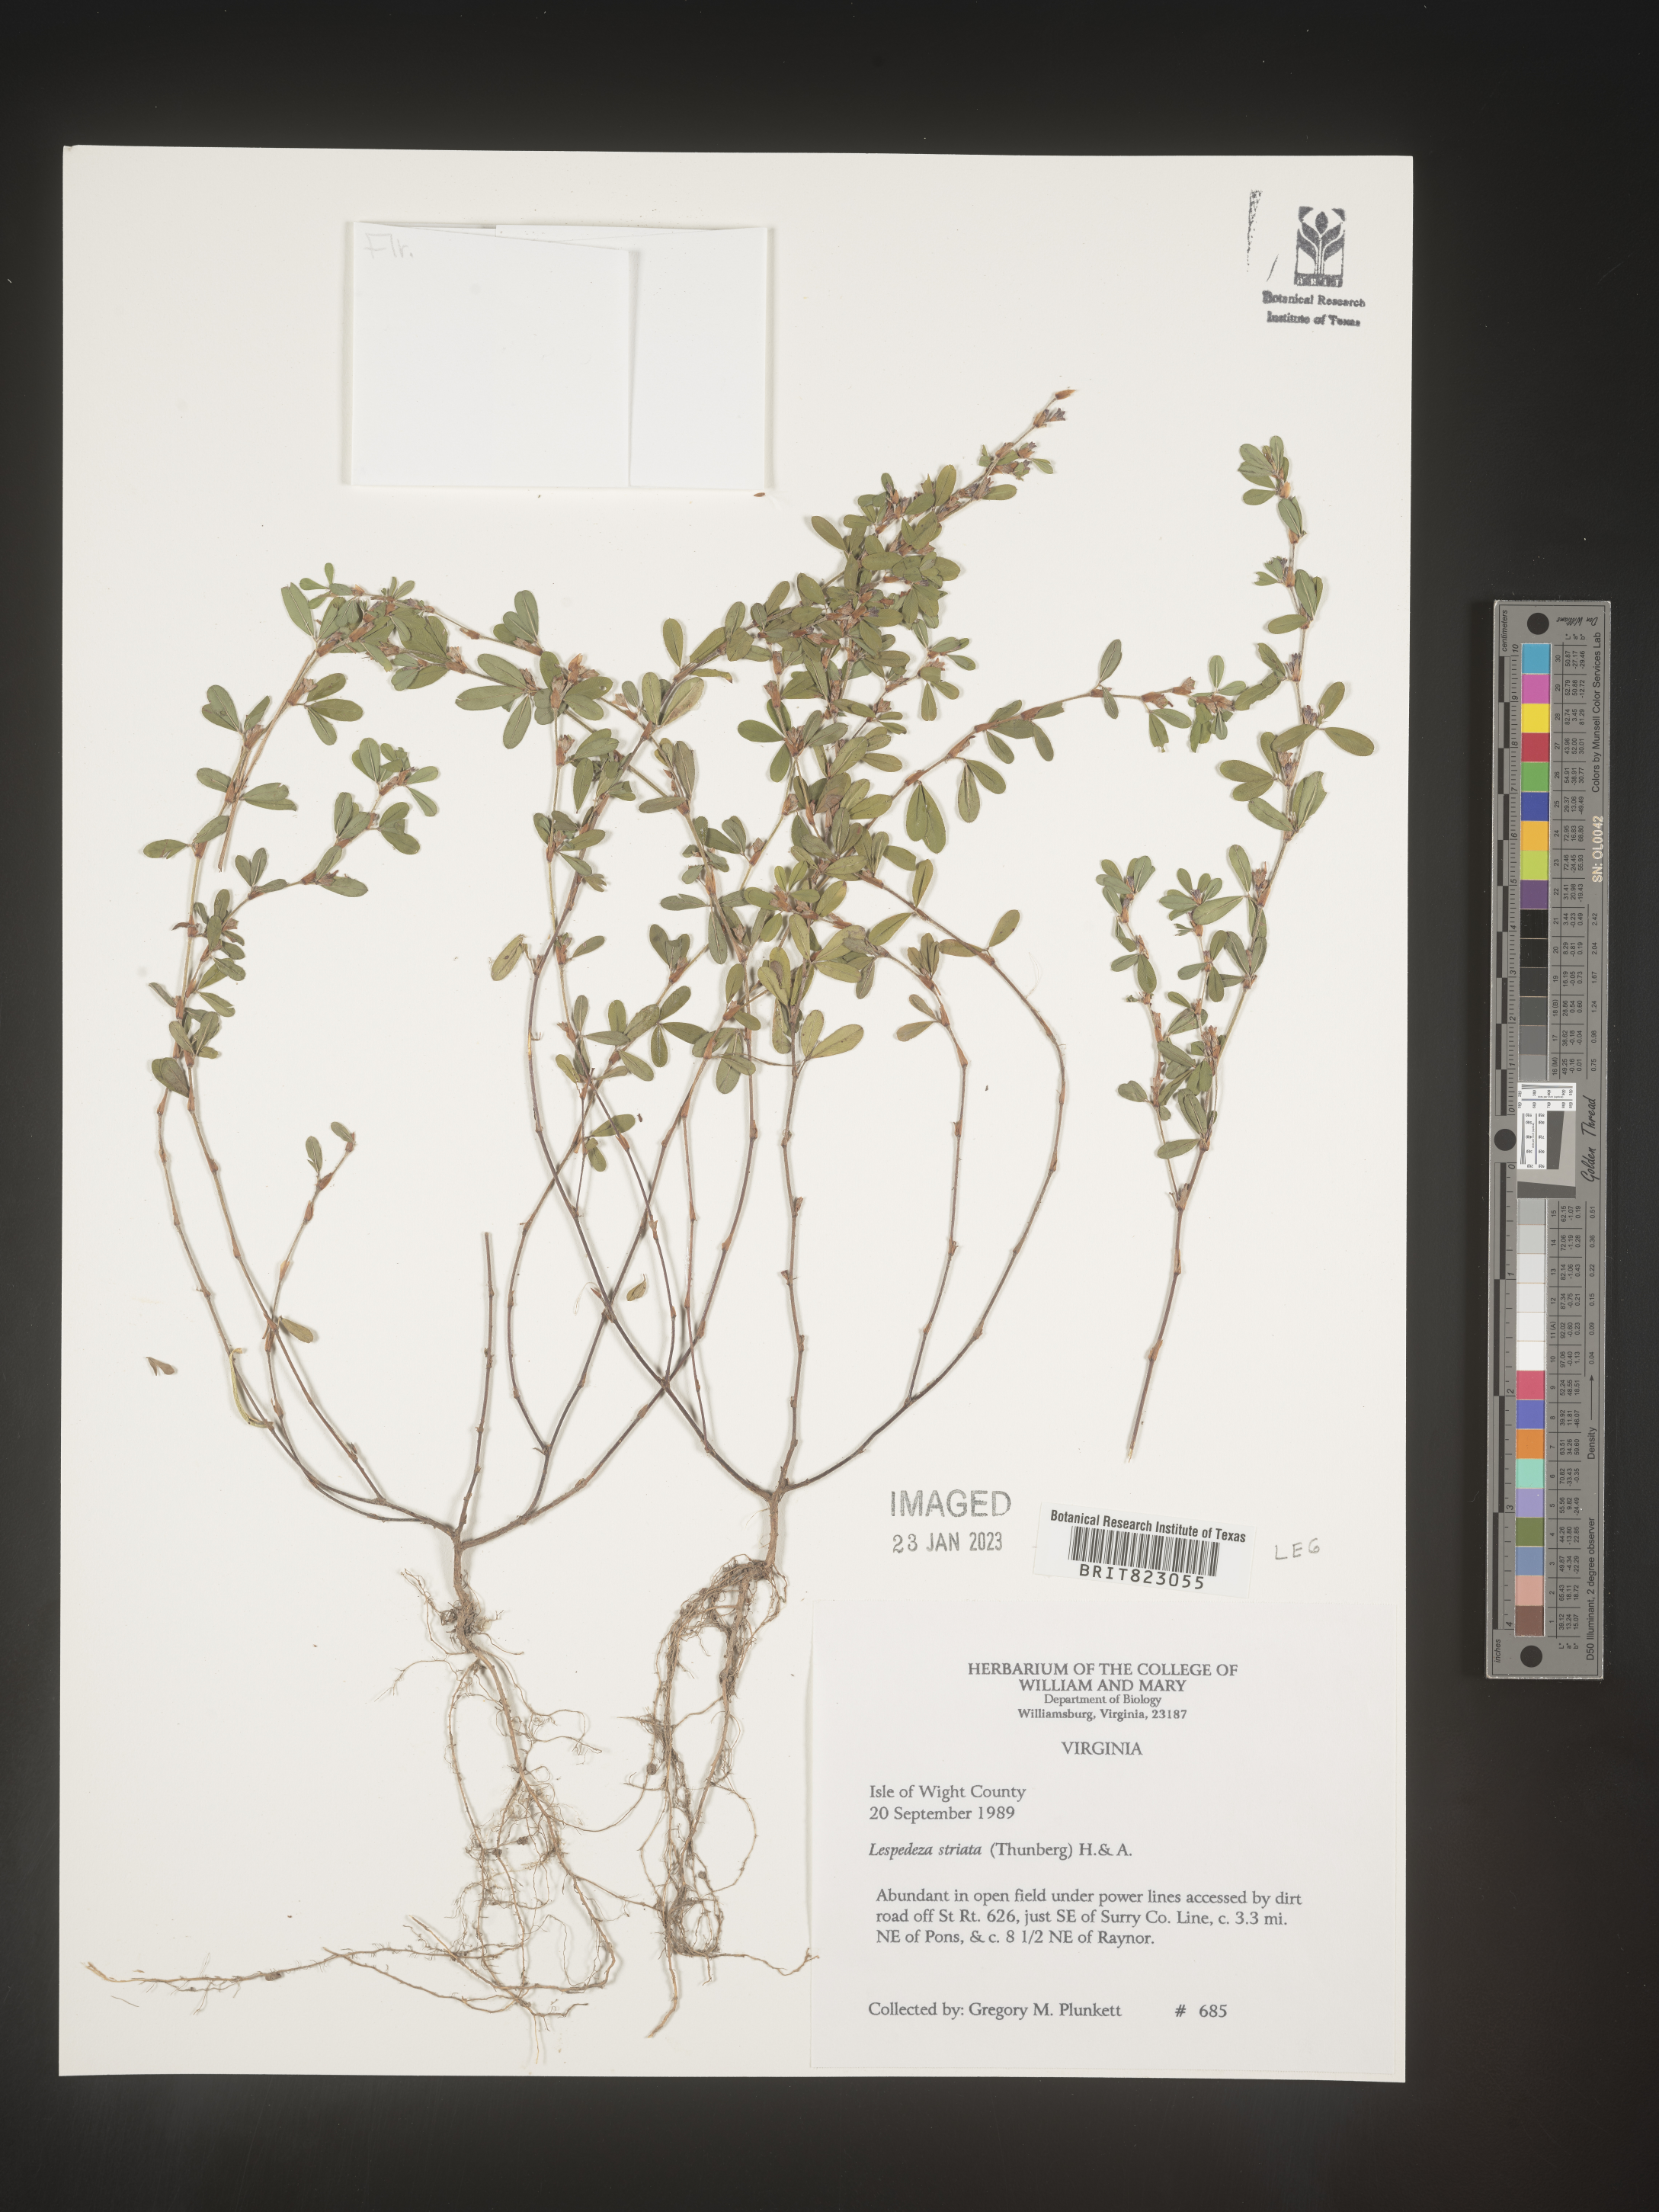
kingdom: Plantae
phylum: Tracheophyta
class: Magnoliopsida
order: Fabales
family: Fabaceae
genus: Kummerowia
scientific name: Kummerowia striata
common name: Japanese clover
